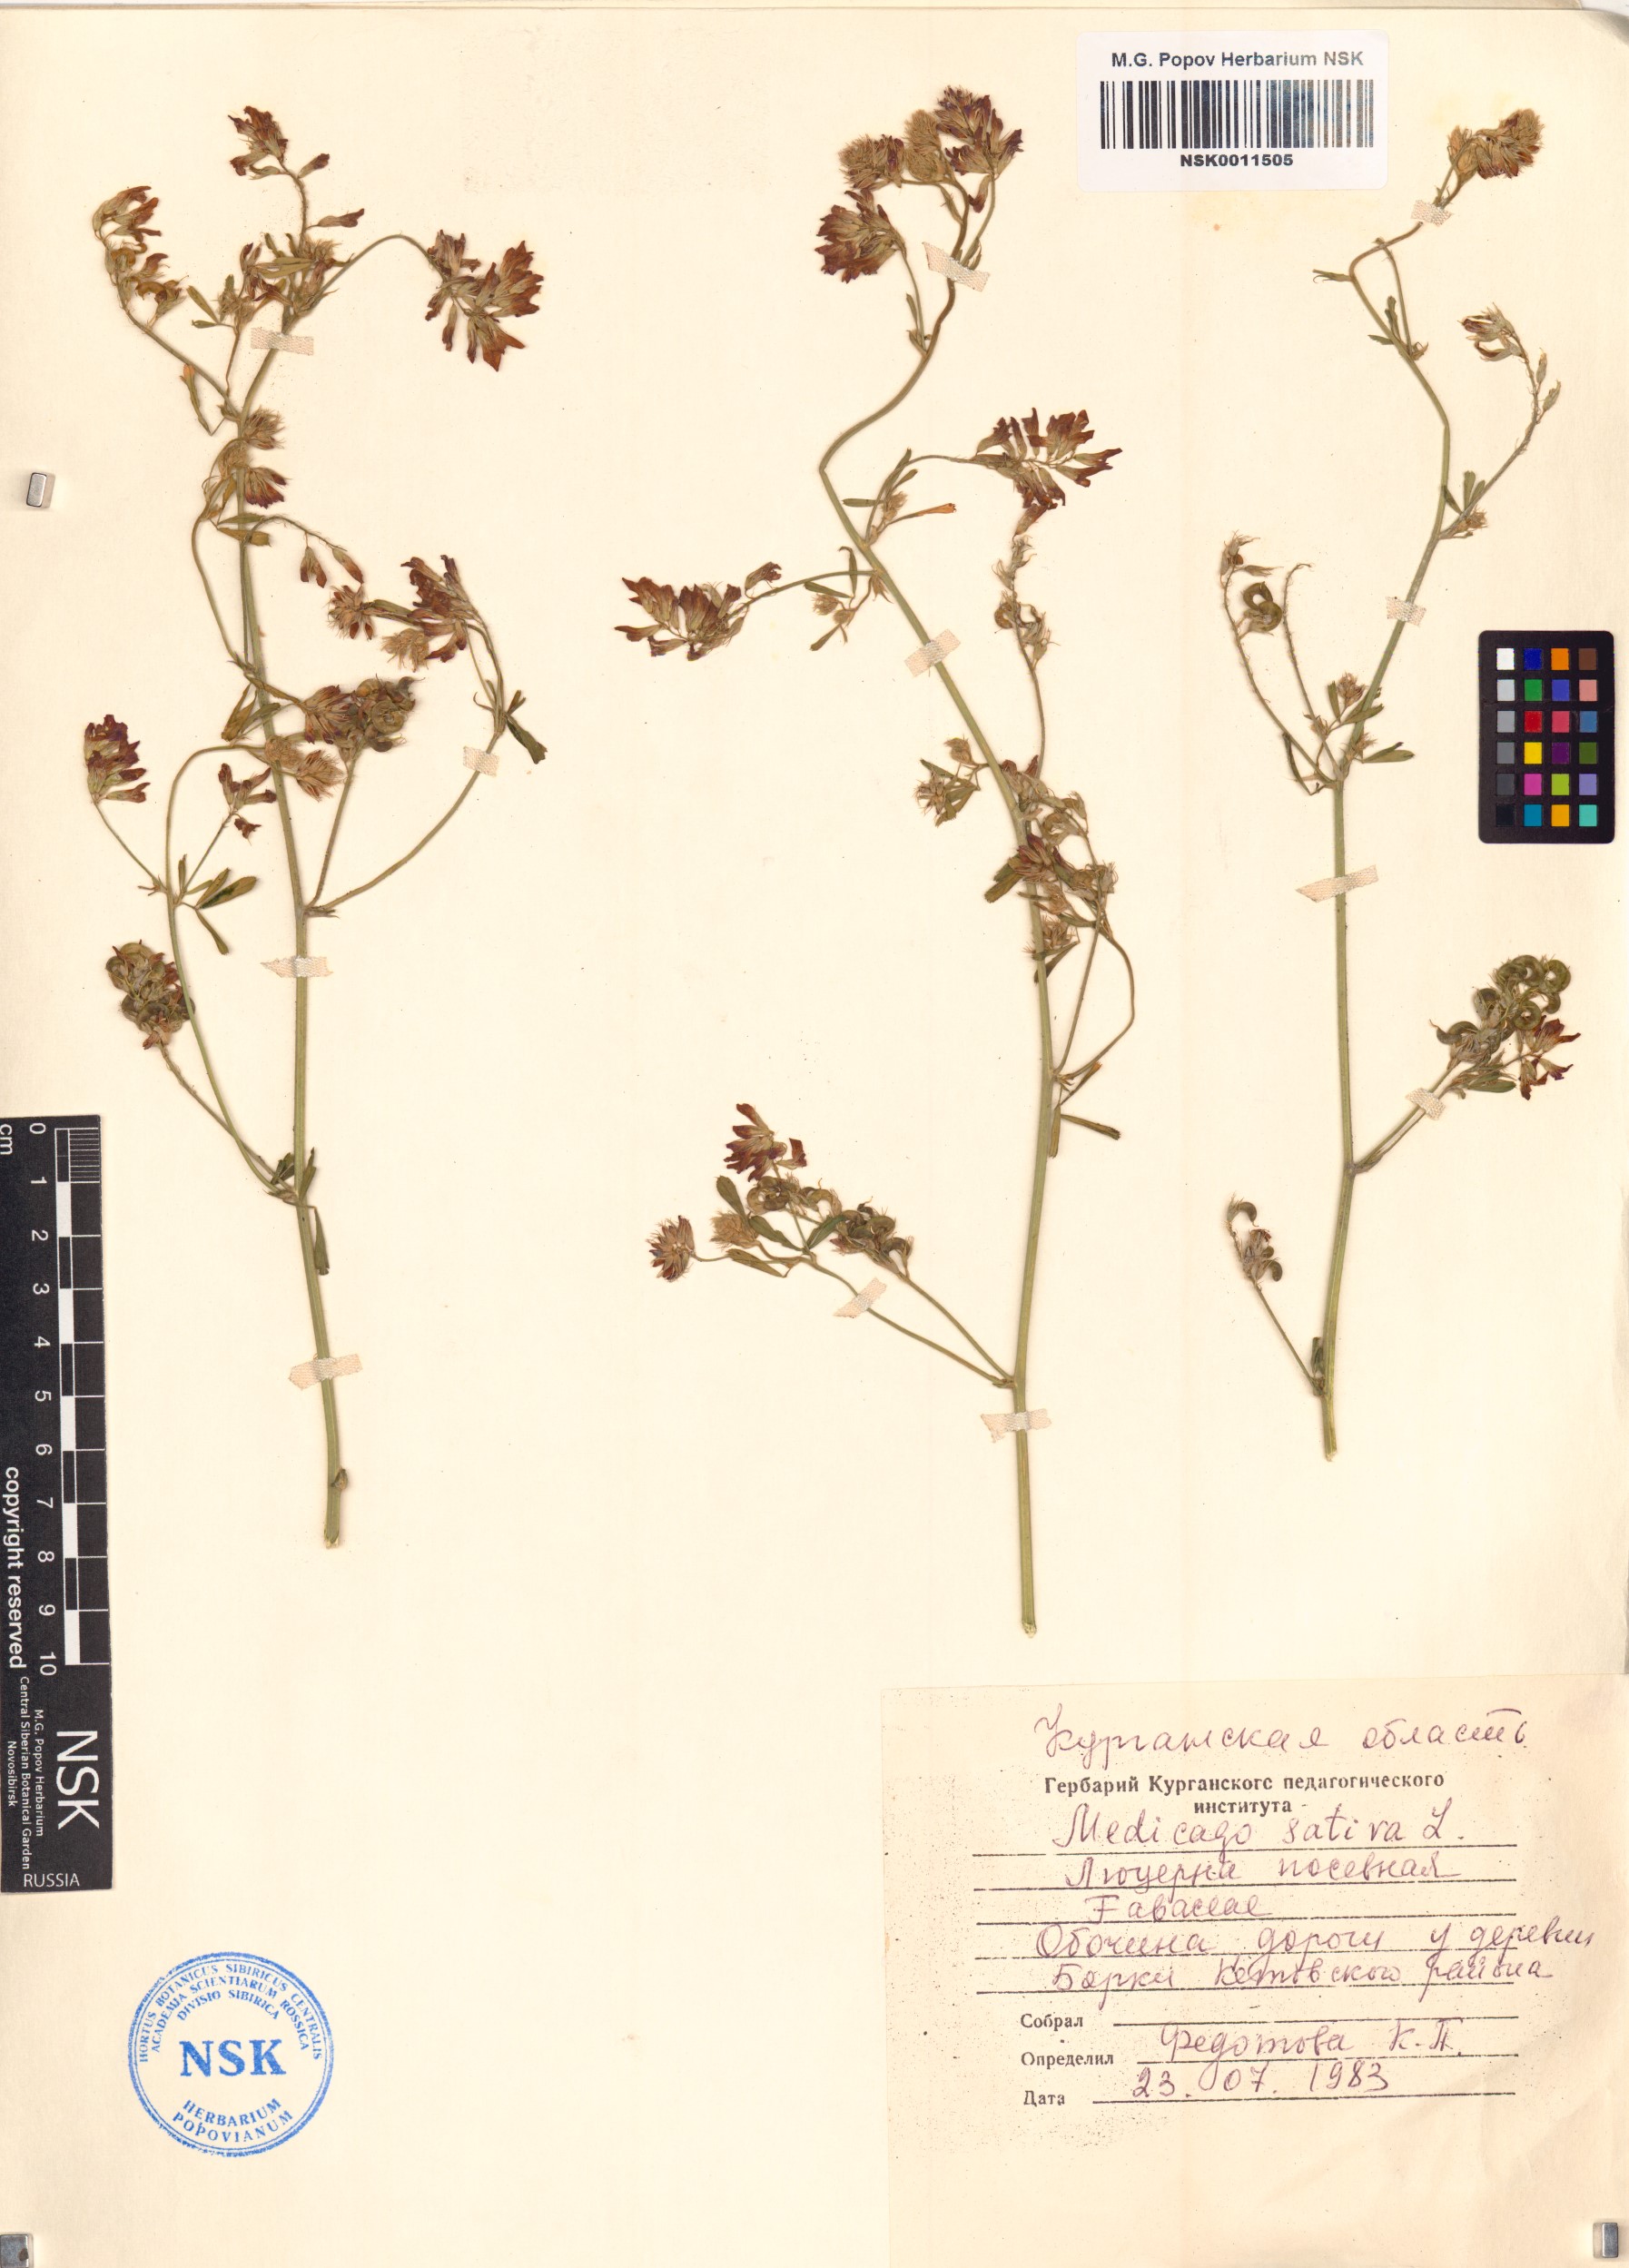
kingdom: Plantae
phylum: Tracheophyta
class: Magnoliopsida
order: Fabales
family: Fabaceae
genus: Medicago
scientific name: Medicago sativa
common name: Alfalfa
